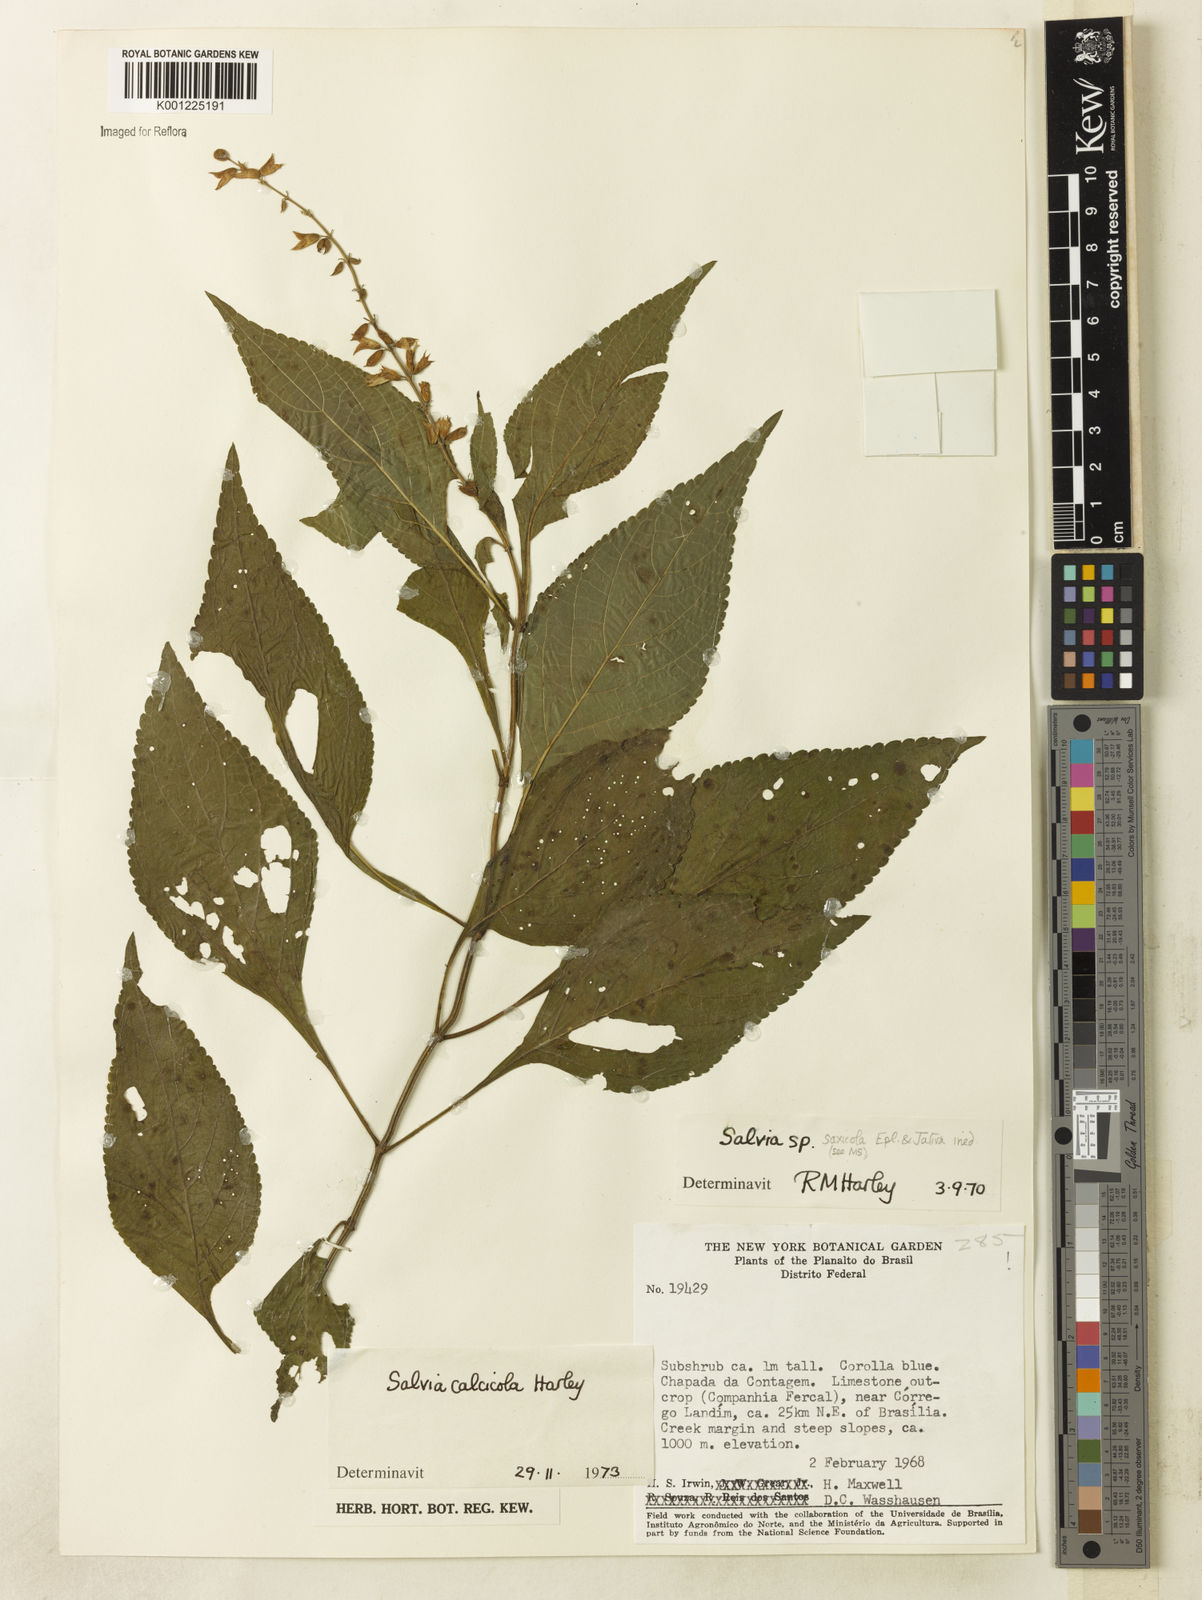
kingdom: Plantae
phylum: Tracheophyta
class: Magnoliopsida
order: Lamiales
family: Lamiaceae
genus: Salvia
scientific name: Salvia calcicola
